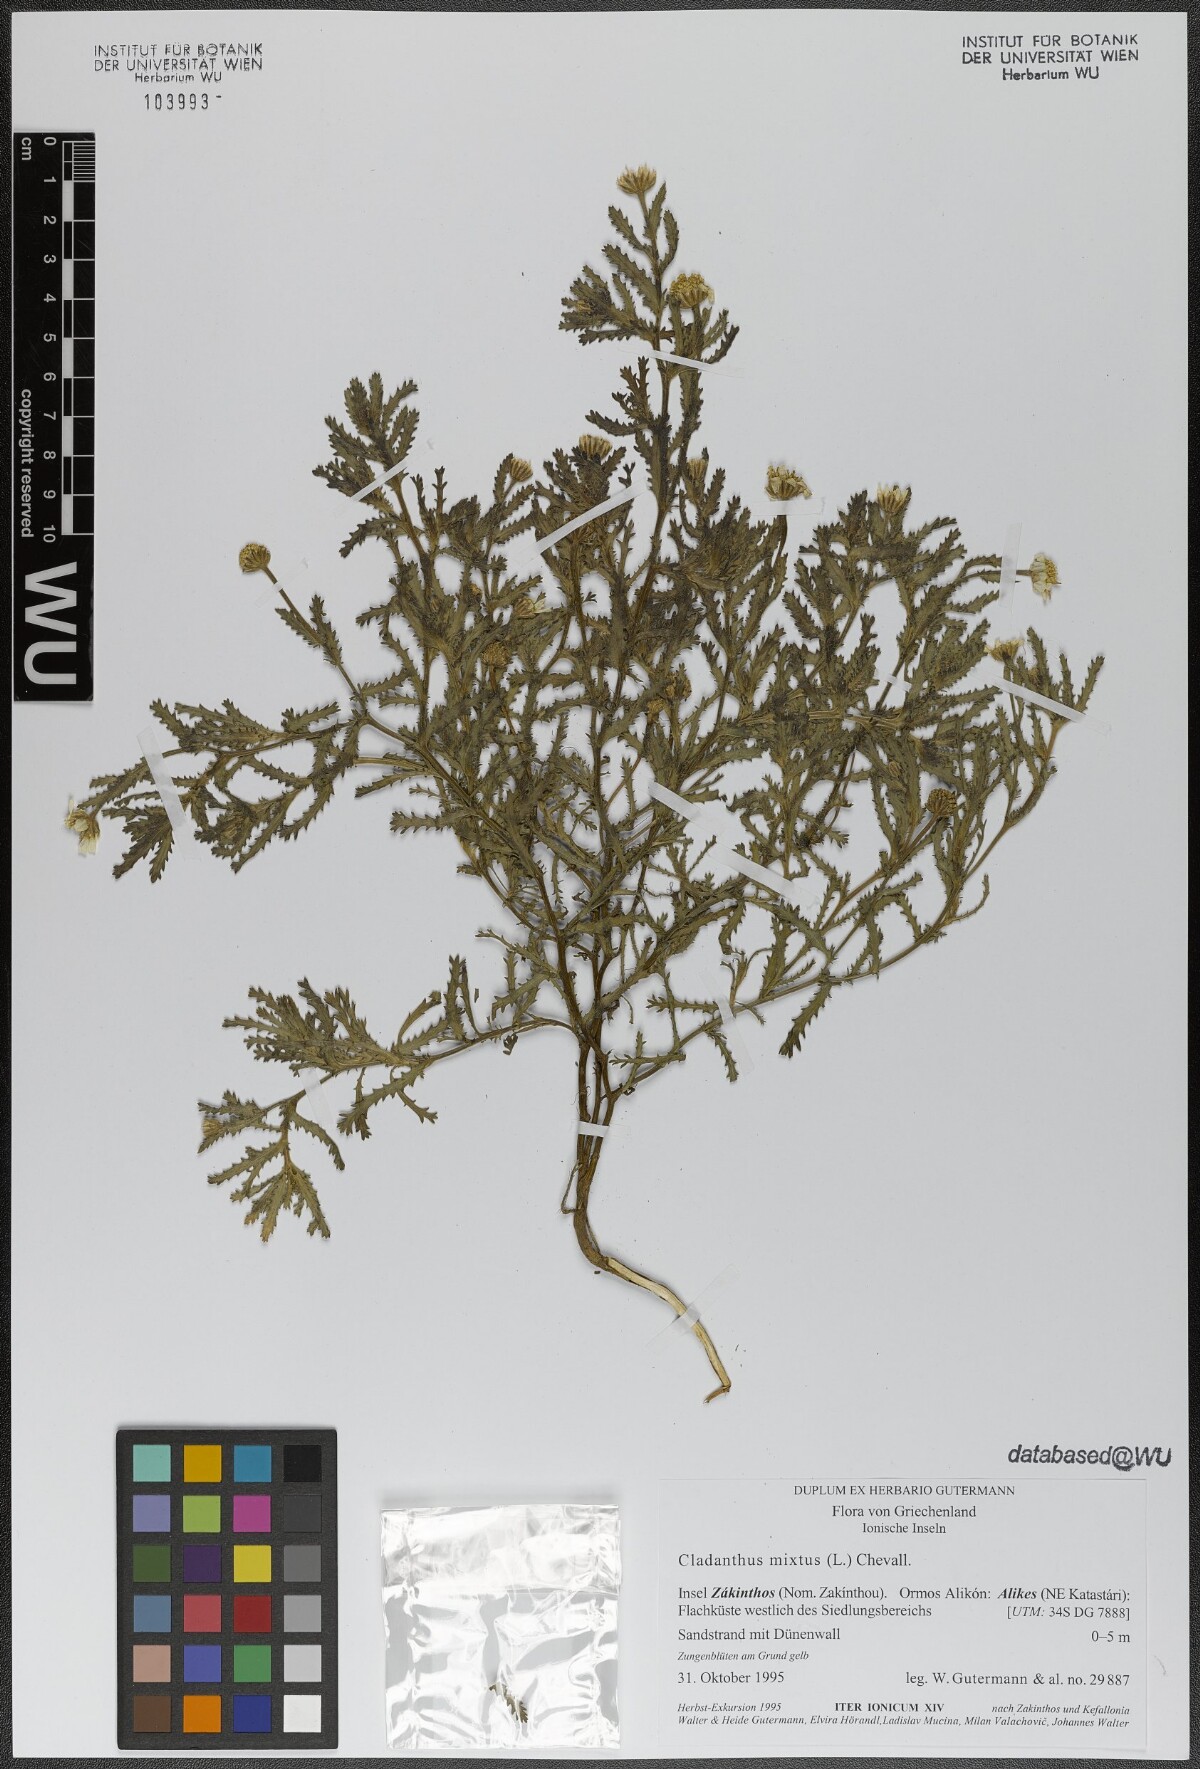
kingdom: Plantae
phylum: Tracheophyta
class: Magnoliopsida
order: Asterales
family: Asteraceae
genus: Cladanthus
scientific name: Cladanthus mixtus
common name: Weedy dogfennel
